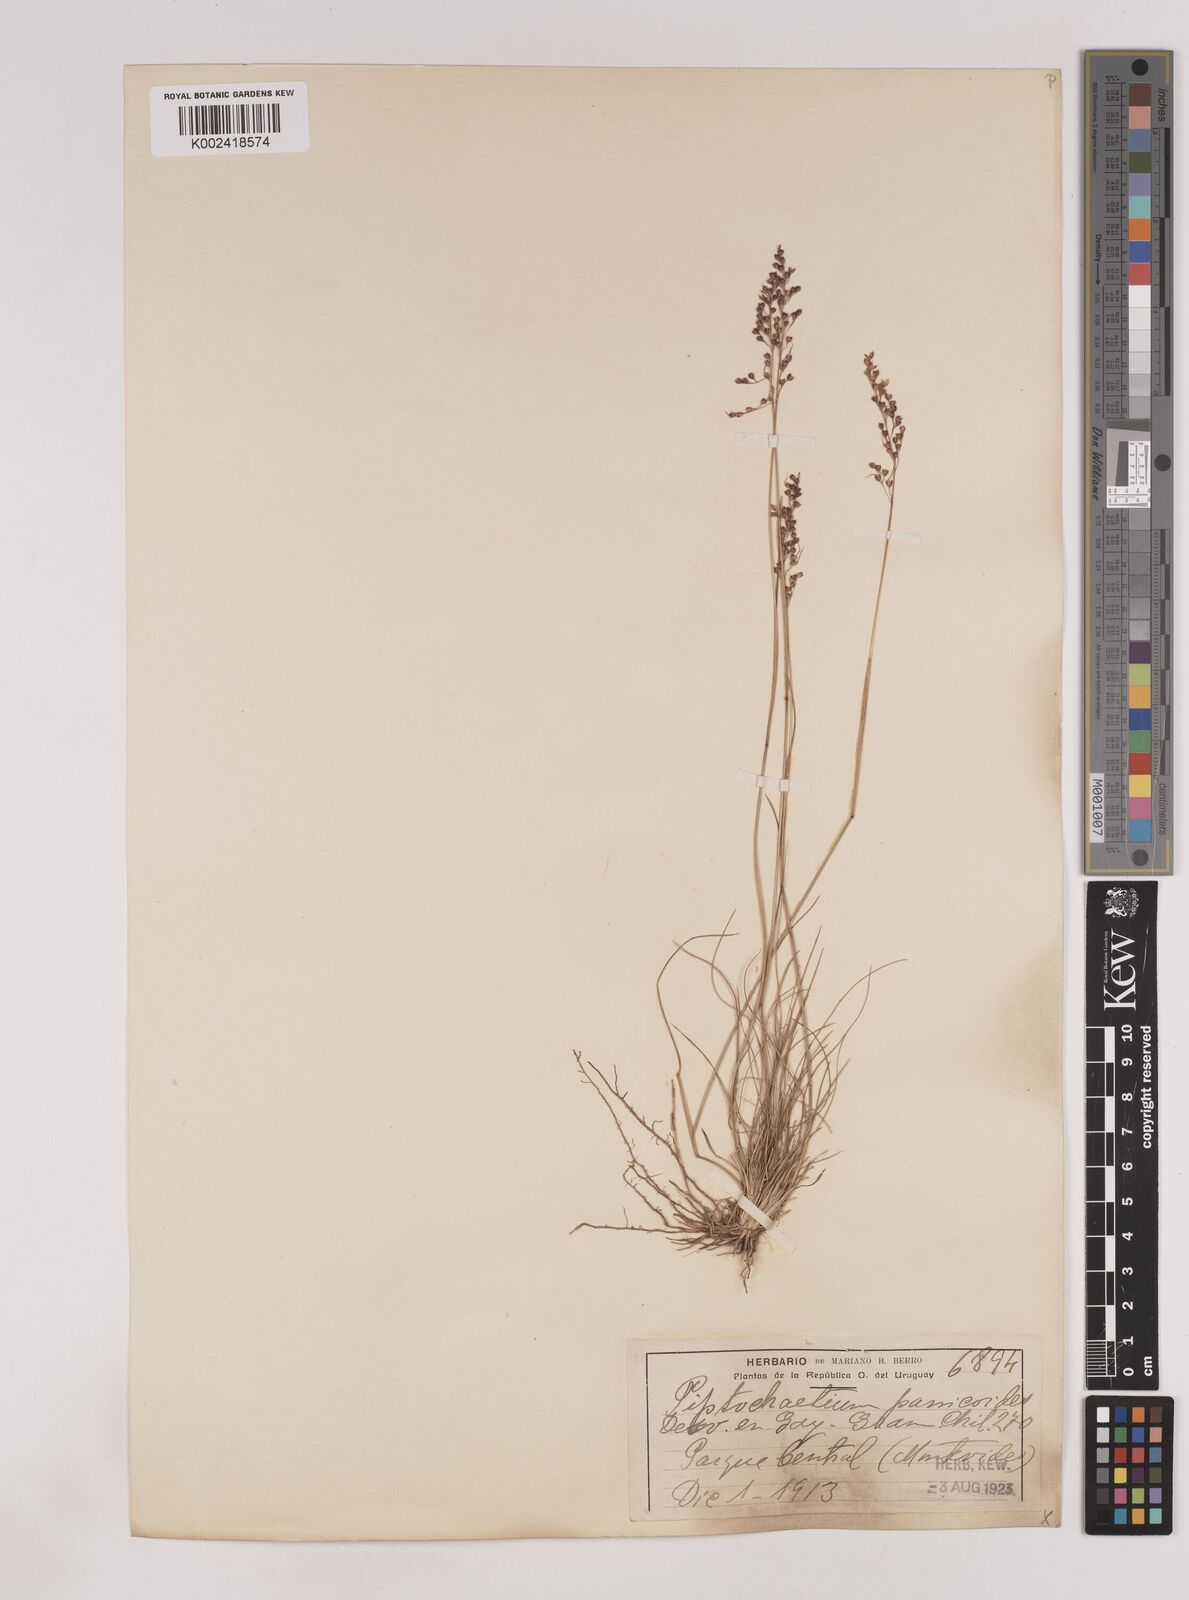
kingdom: Plantae
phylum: Tracheophyta
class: Liliopsida
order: Poales
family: Poaceae
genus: Piptochaetium
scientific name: Piptochaetium montevidense
